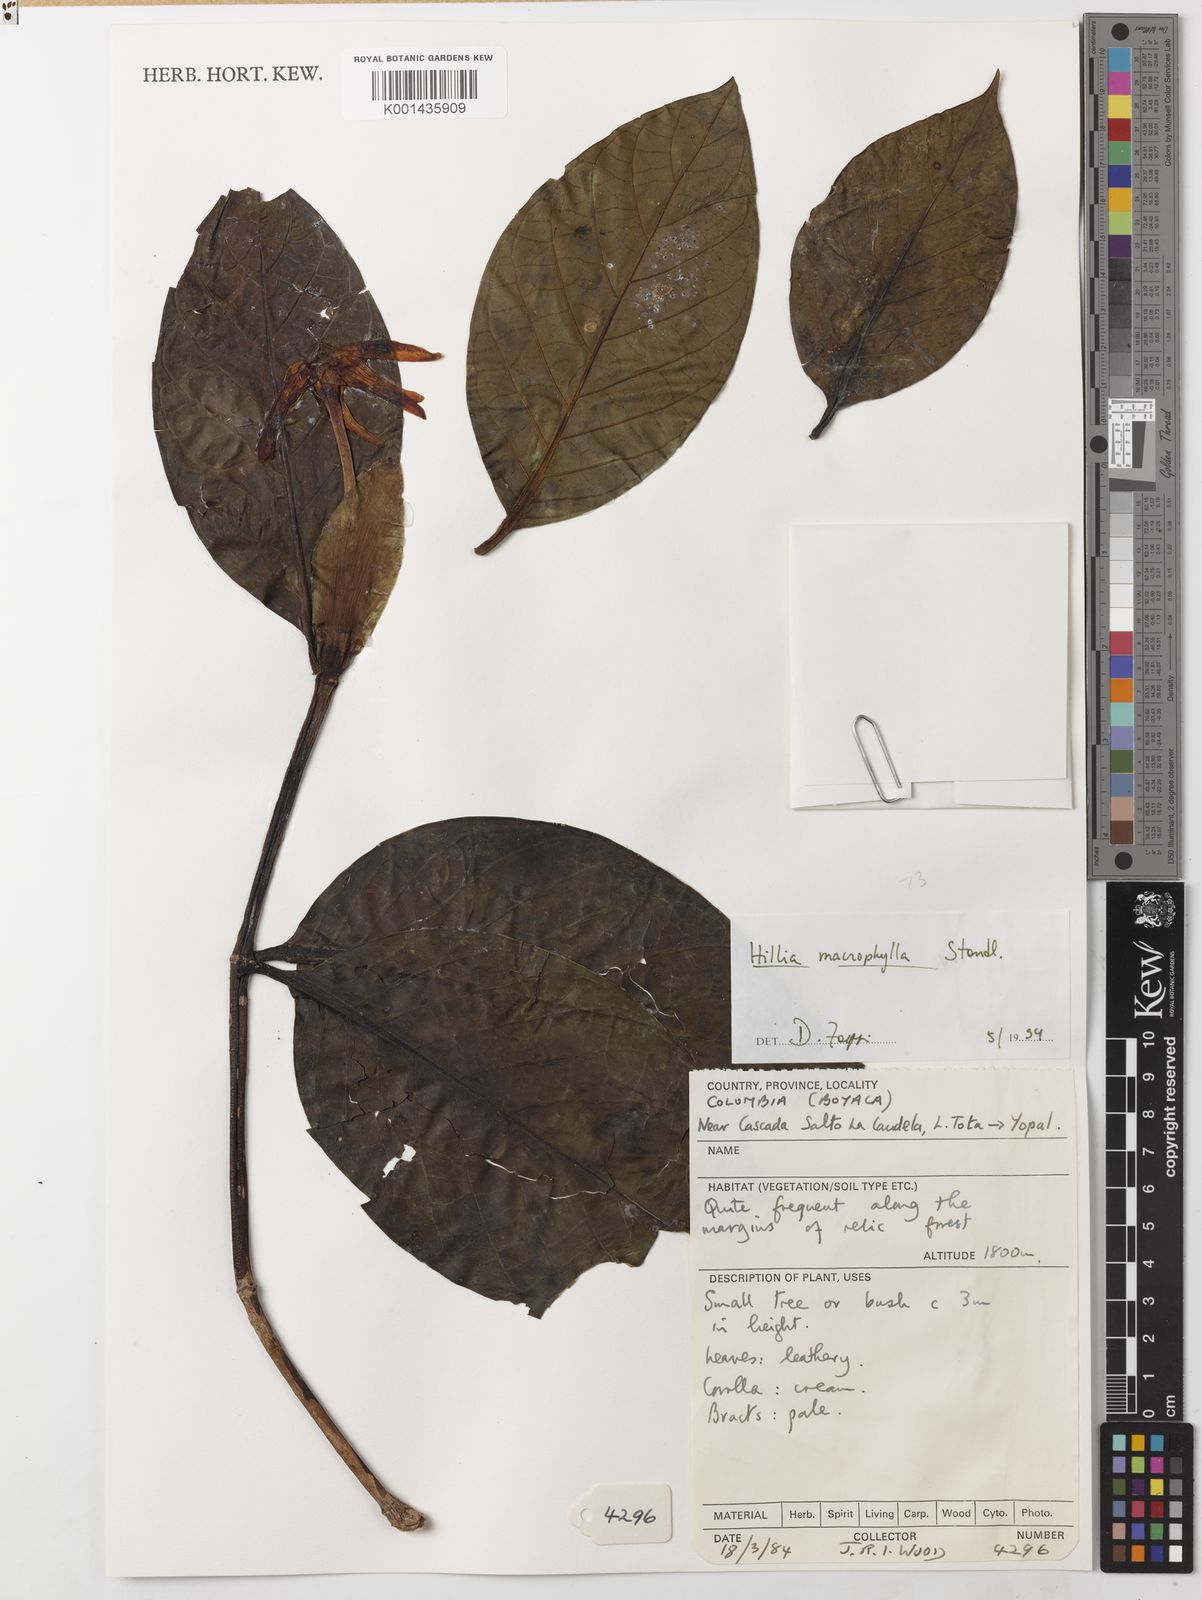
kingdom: Plantae
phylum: Tracheophyta
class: Magnoliopsida
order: Gentianales
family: Rubiaceae
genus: Hillia
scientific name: Hillia macrophylla
